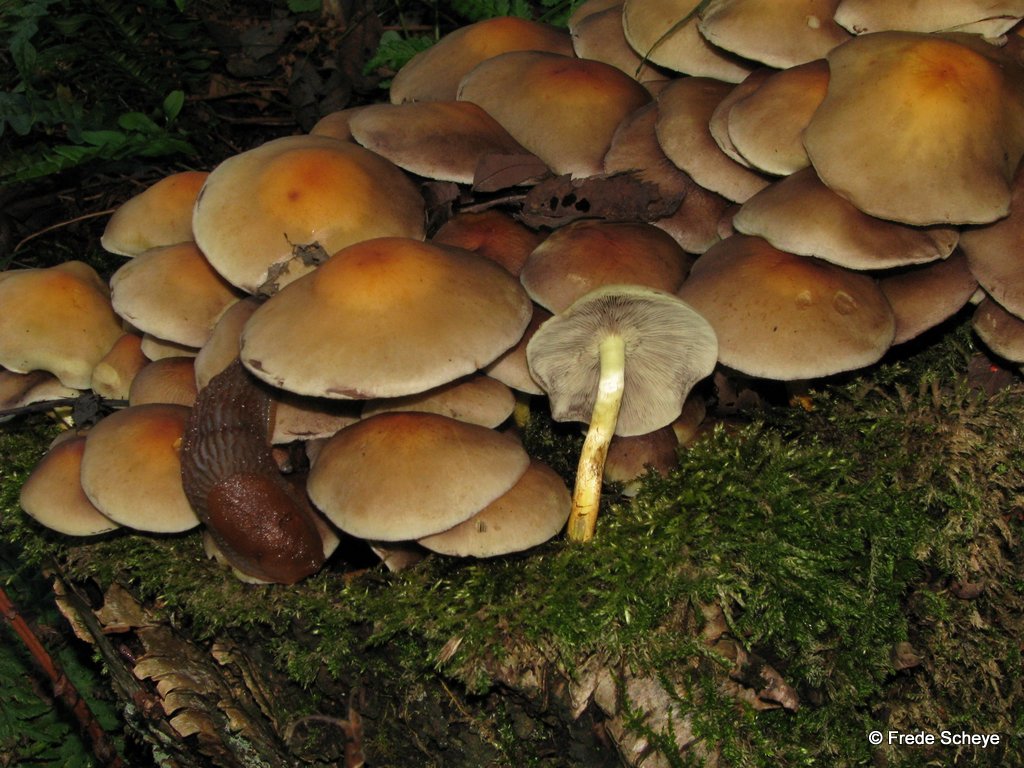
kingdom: Fungi
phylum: Basidiomycota
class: Agaricomycetes
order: Agaricales
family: Strophariaceae
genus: Hypholoma
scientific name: Hypholoma fasciculare
